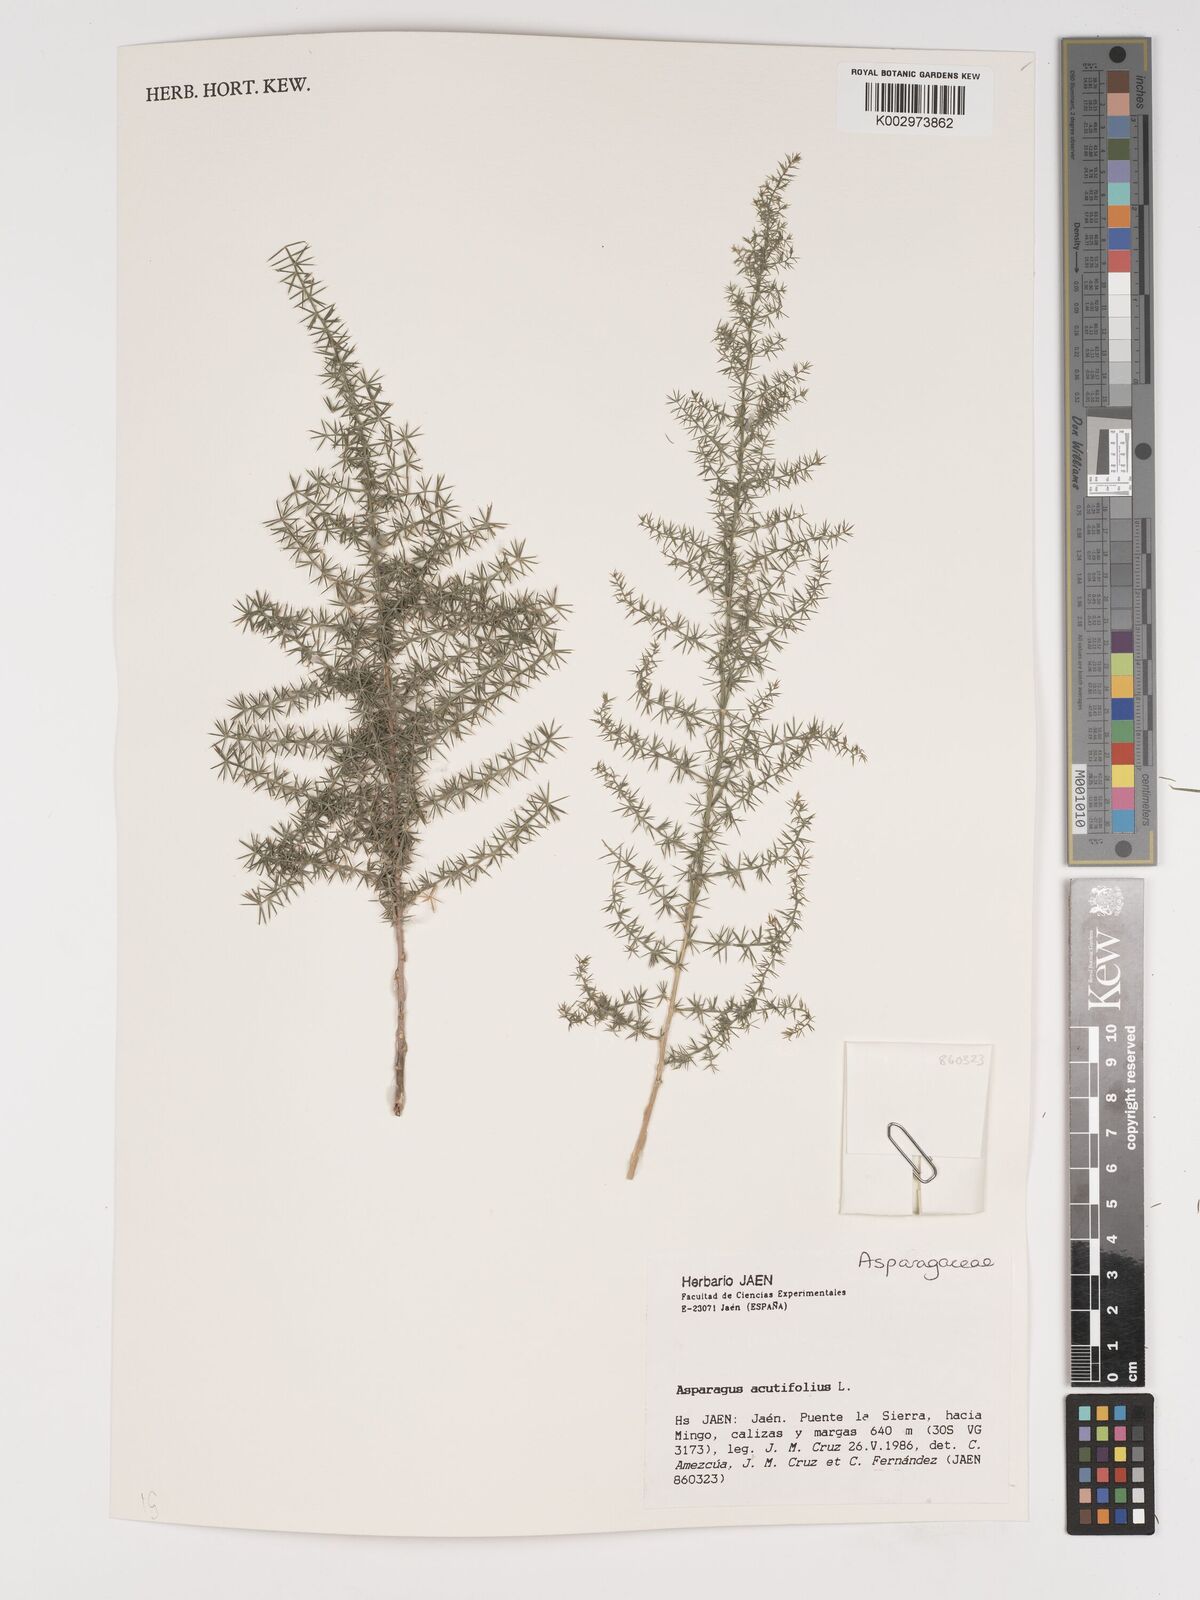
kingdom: Plantae
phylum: Tracheophyta
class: Liliopsida
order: Asparagales
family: Asparagaceae
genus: Asparagus
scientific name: Asparagus acutifolius
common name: Wild asparagus
